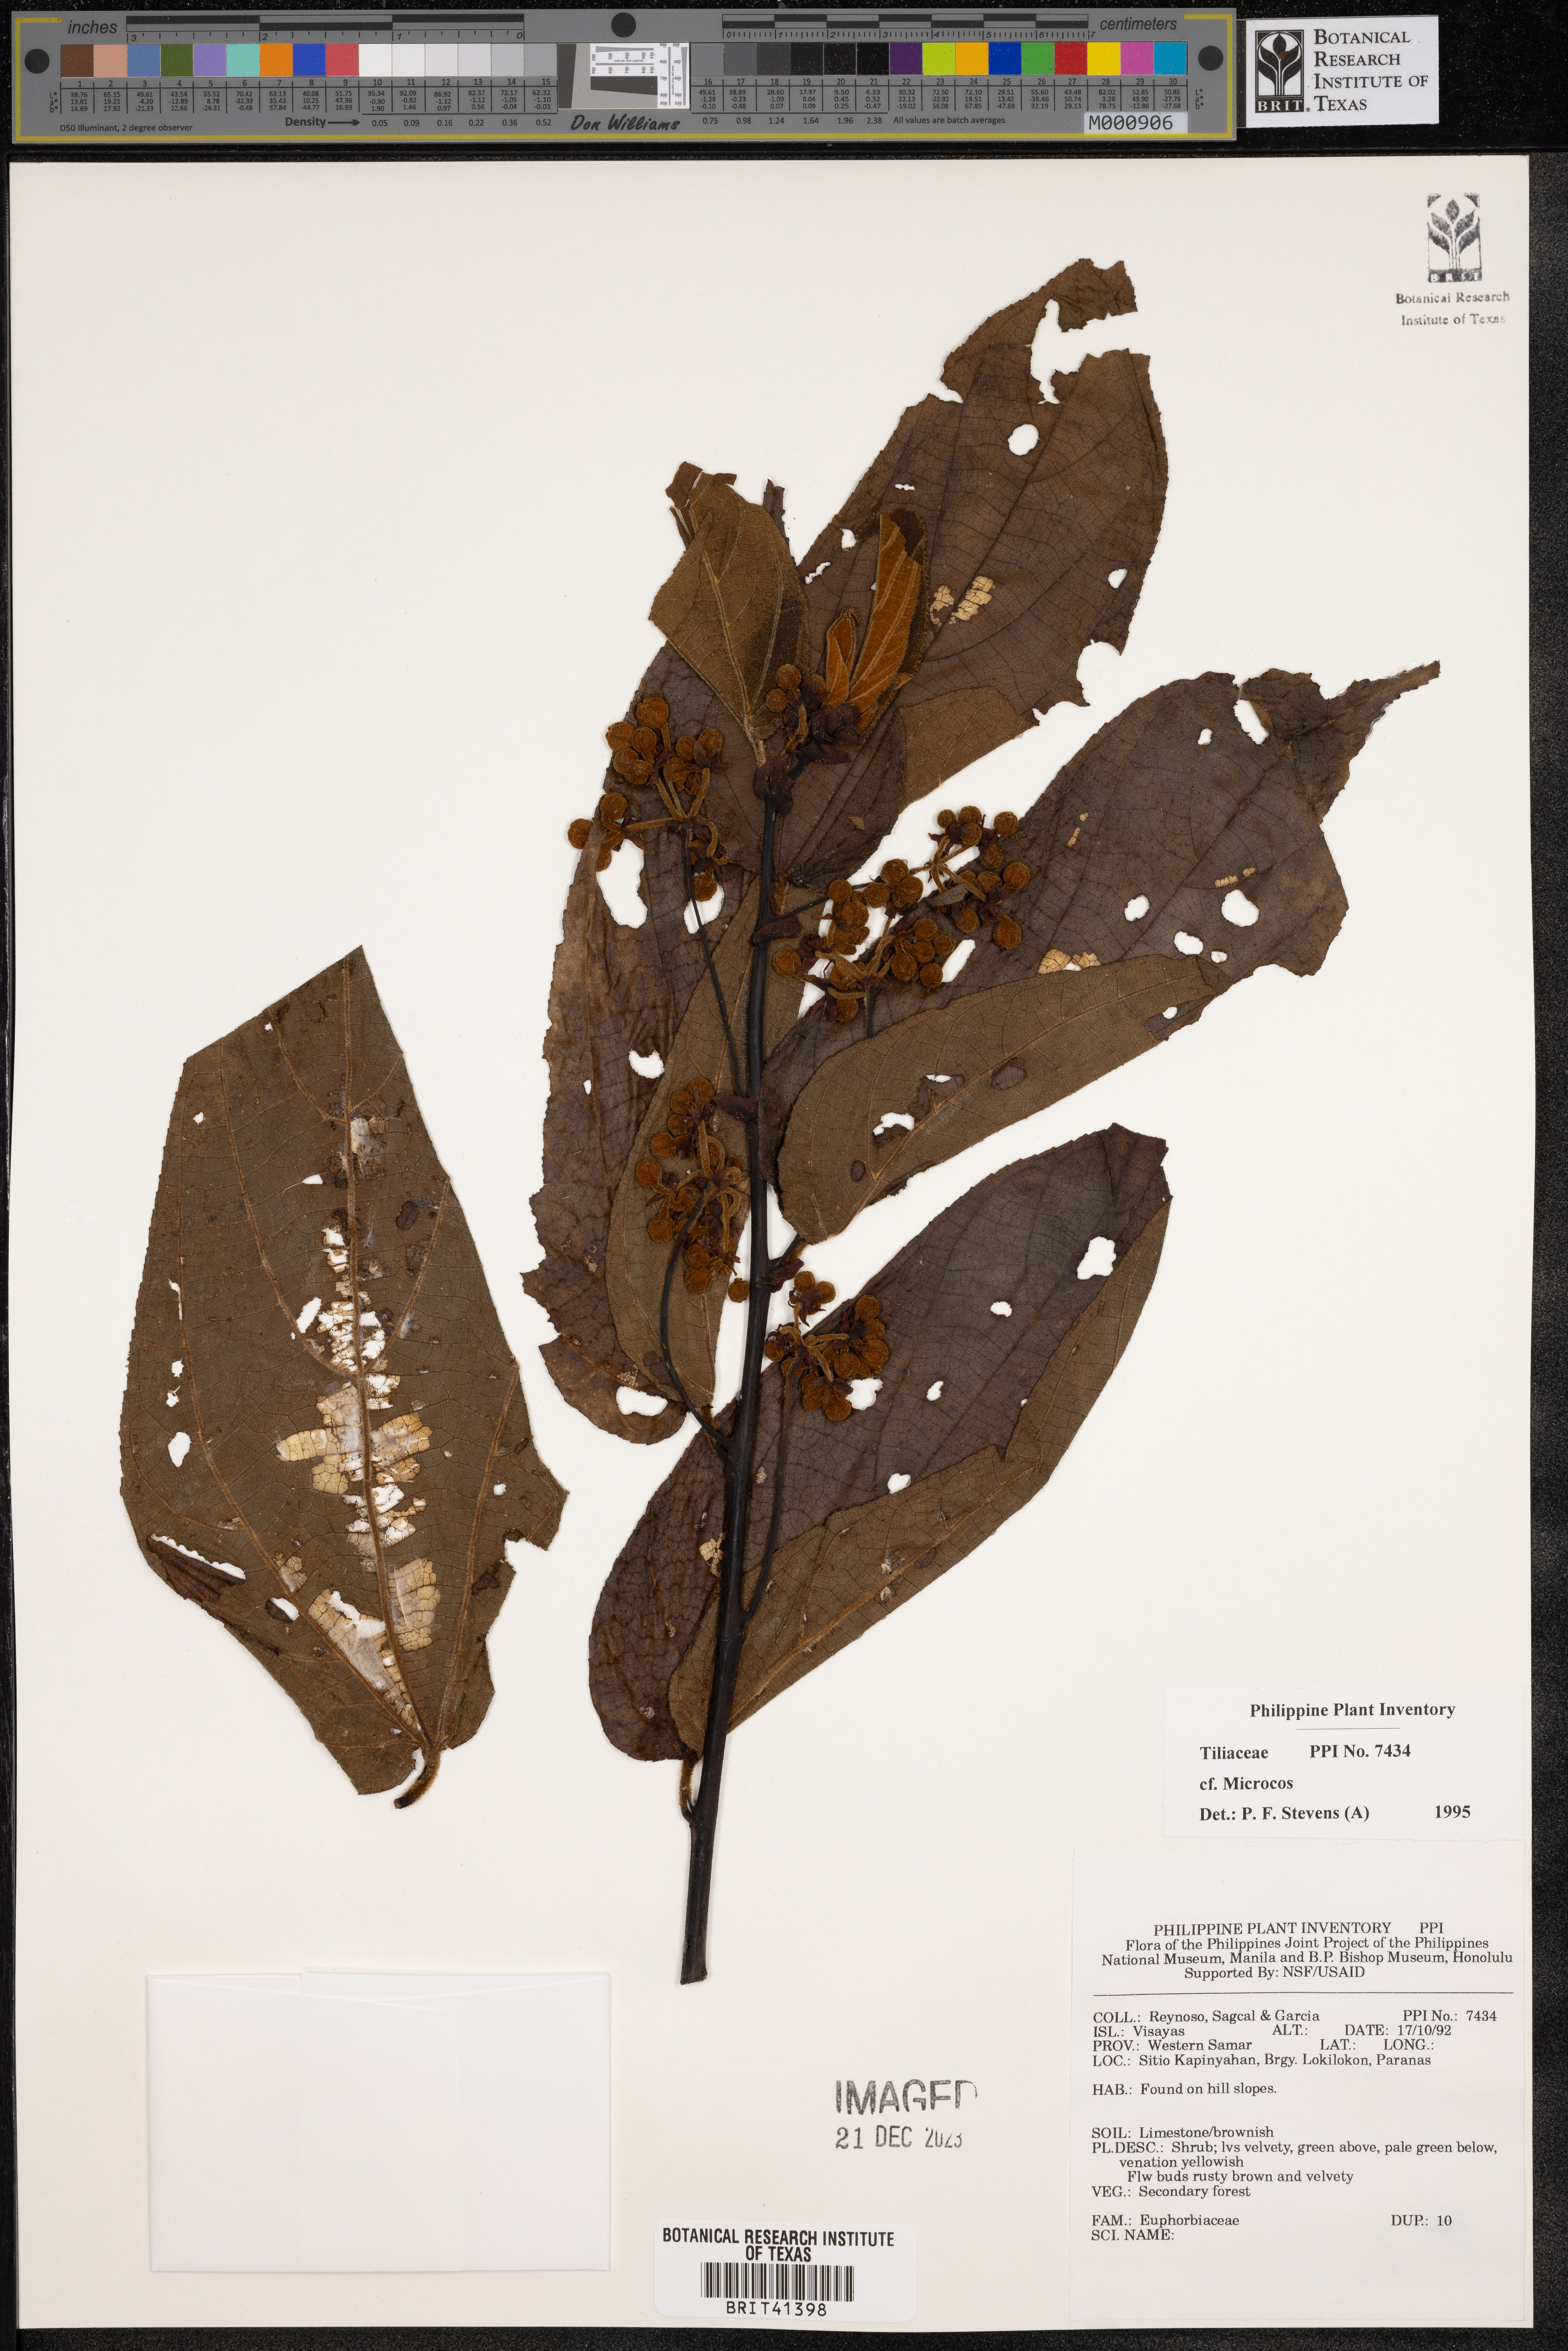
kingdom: Plantae
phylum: Tracheophyta
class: Magnoliopsida
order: Malvales
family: Malvaceae
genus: Microcos
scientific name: Microcos
